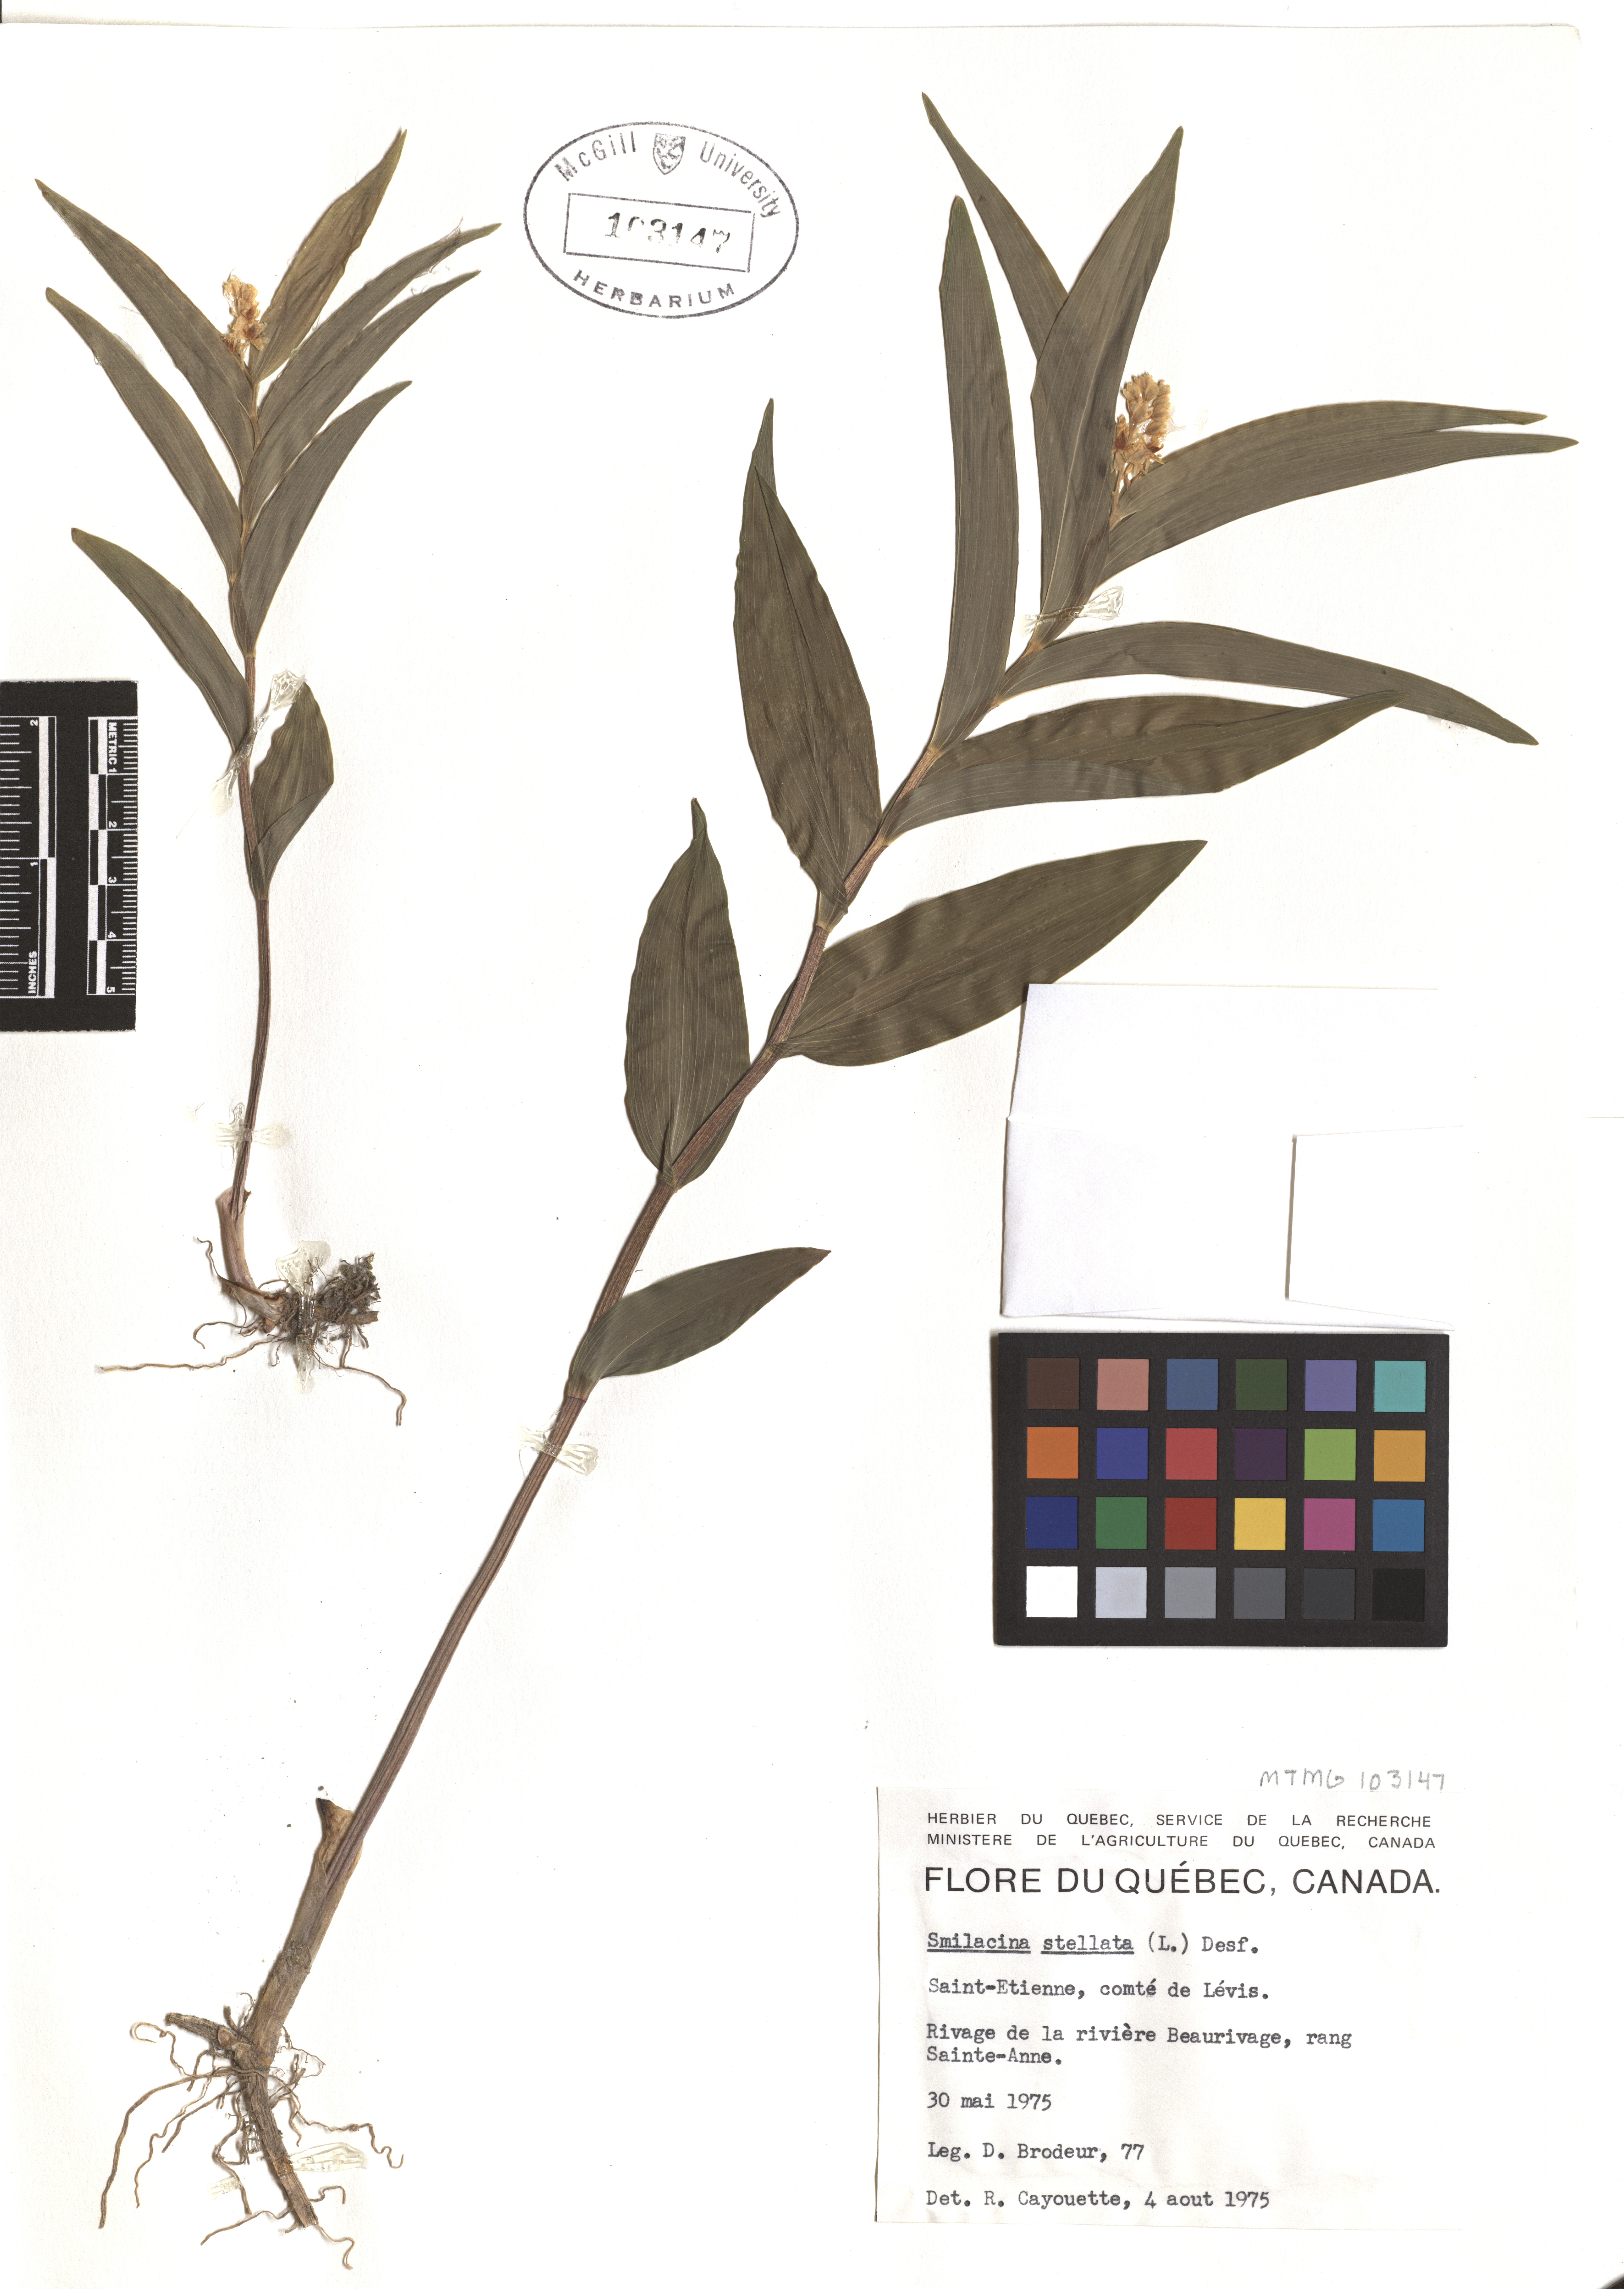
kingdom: Plantae
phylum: Tracheophyta
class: Liliopsida
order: Asparagales
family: Asparagaceae
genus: Maianthemum
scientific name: Maianthemum stellatum
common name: Little false solomon's seal
